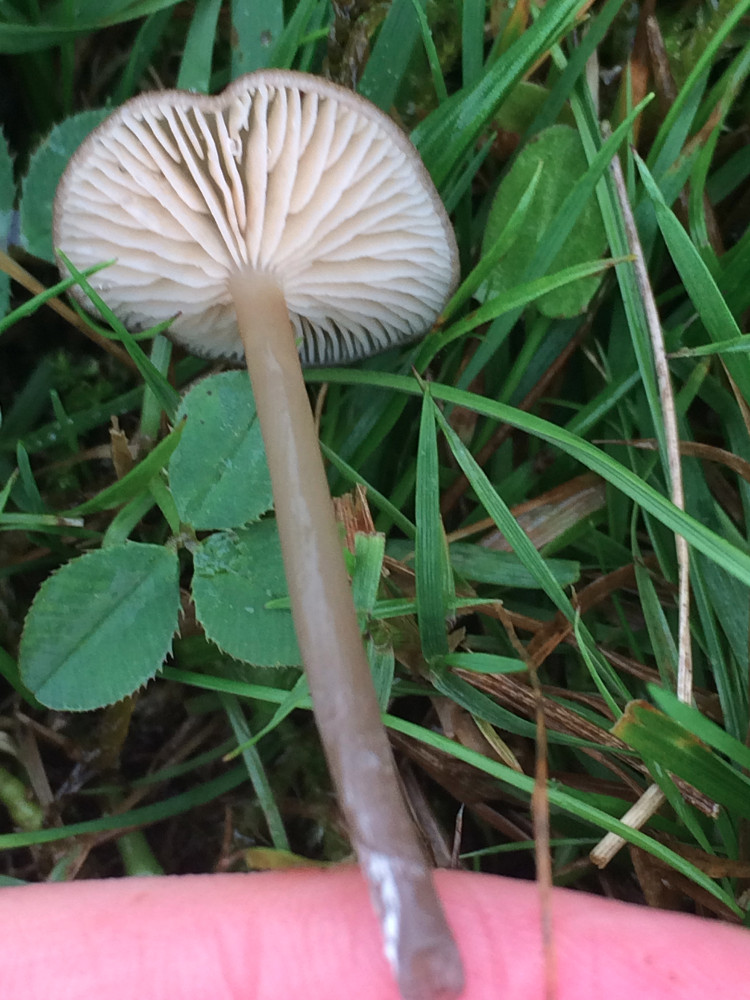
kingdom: Fungi
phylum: Basidiomycota
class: Agaricomycetes
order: Agaricales
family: Entolomataceae
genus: Entoloma
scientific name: Entoloma allospermum
